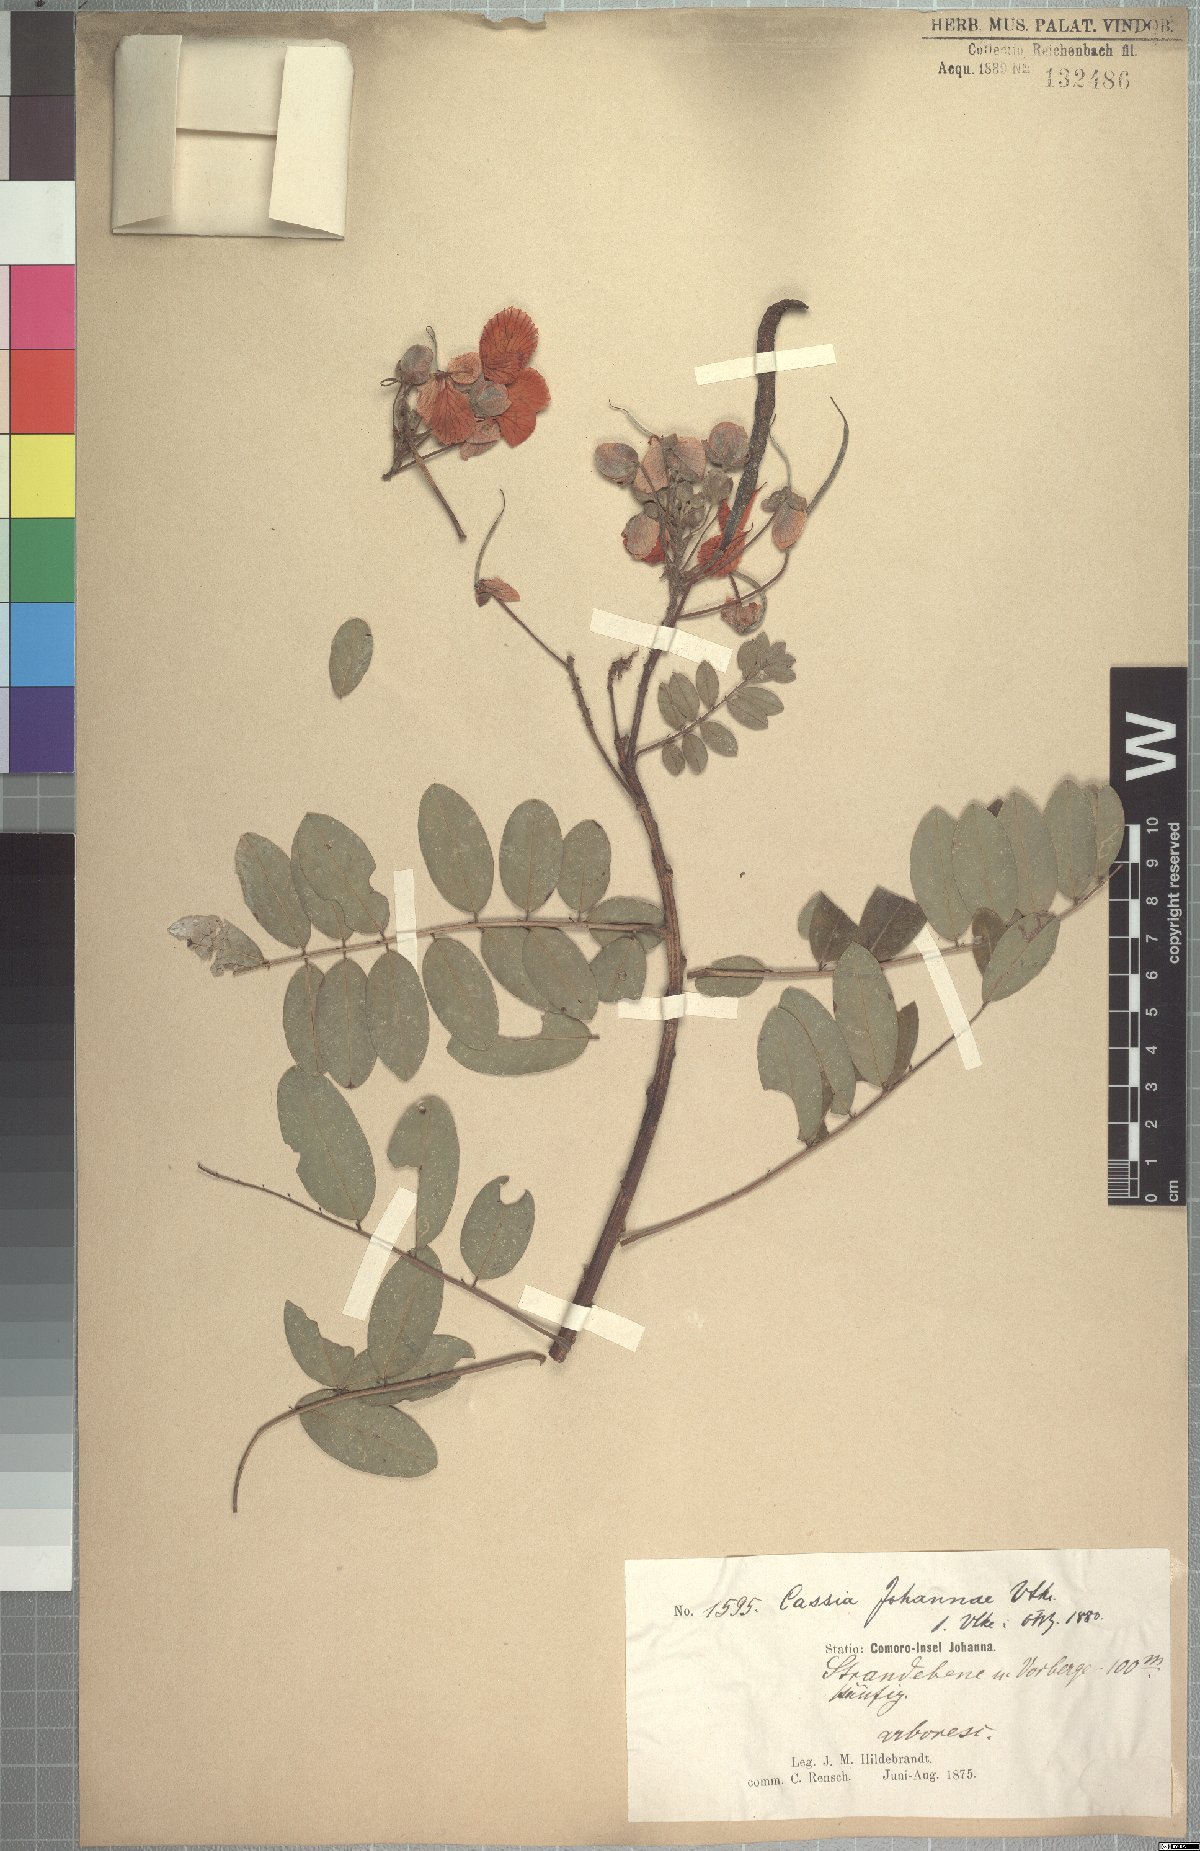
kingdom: Plantae
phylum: Tracheophyta
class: Magnoliopsida
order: Fabales
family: Fabaceae
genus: Cassia
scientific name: Cassia johannae
